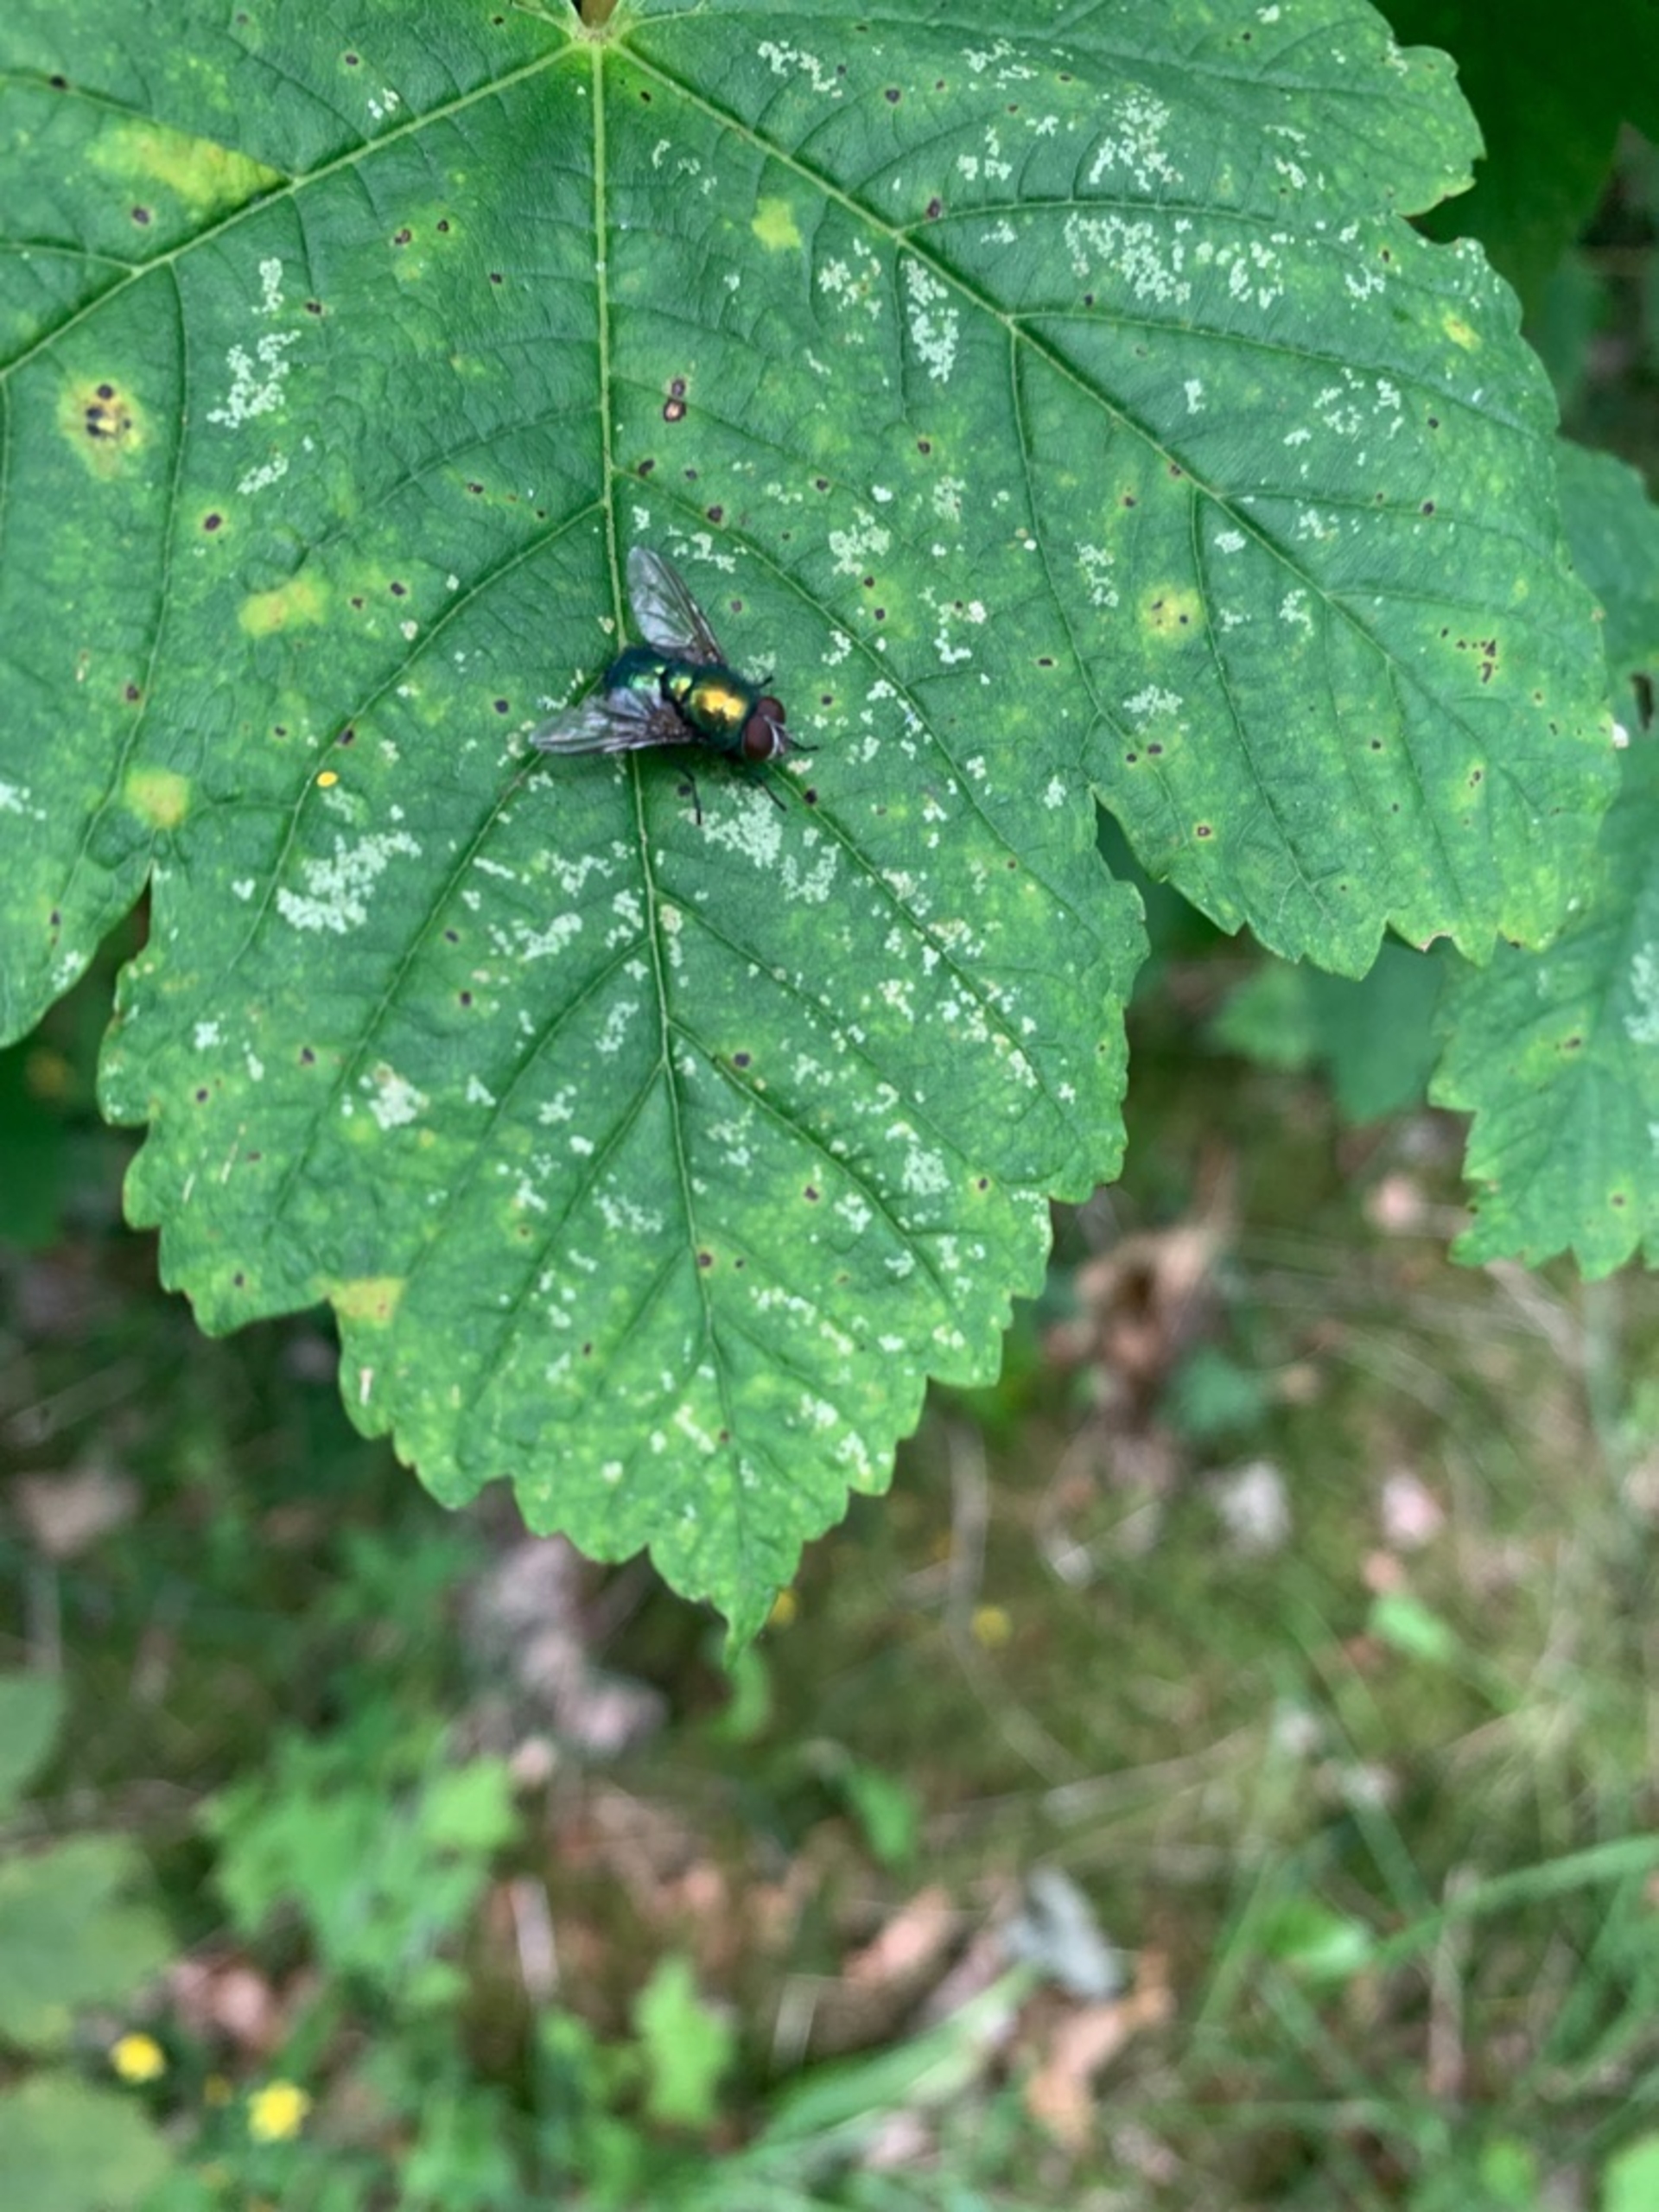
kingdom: Animalia
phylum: Arthropoda
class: Insecta
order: Diptera
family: Calliphoridae
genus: Lucilia
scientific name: Lucilia
